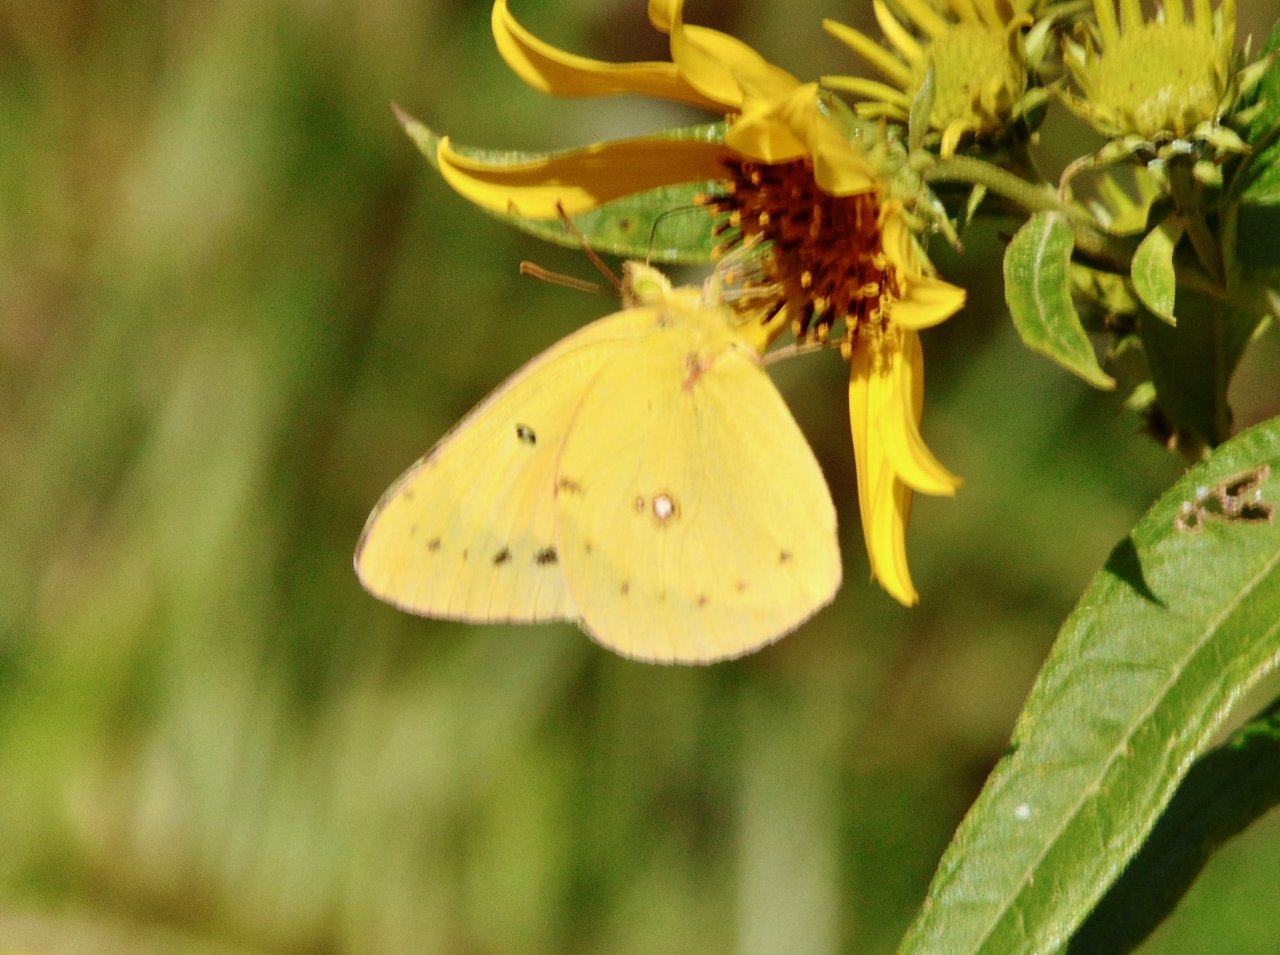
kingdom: Animalia
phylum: Arthropoda
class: Insecta
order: Lepidoptera
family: Pieridae
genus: Colias
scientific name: Colias eurytheme
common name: Orange Sulphur
